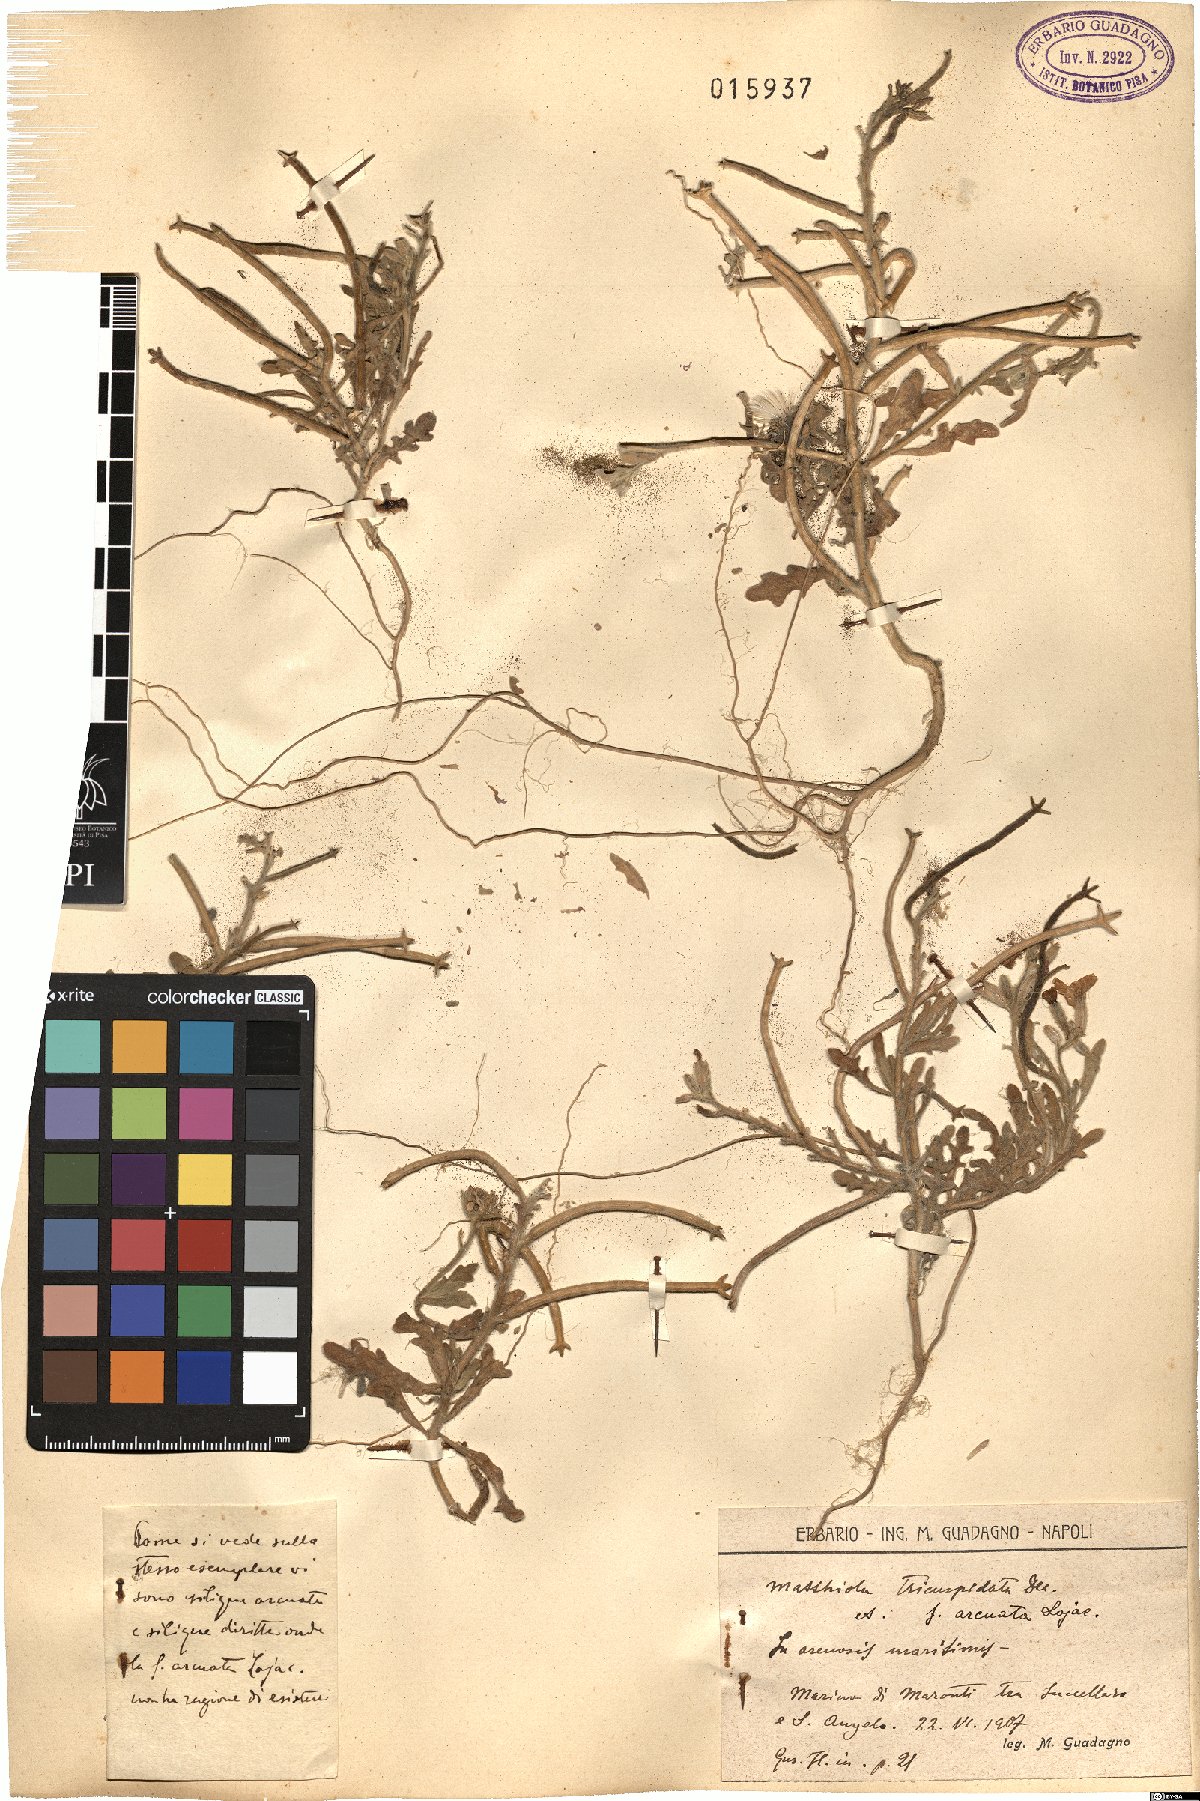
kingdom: Plantae
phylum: Tracheophyta
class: Magnoliopsida
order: Brassicales
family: Brassicaceae
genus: Matthiola
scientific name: Matthiola tricuspidata
